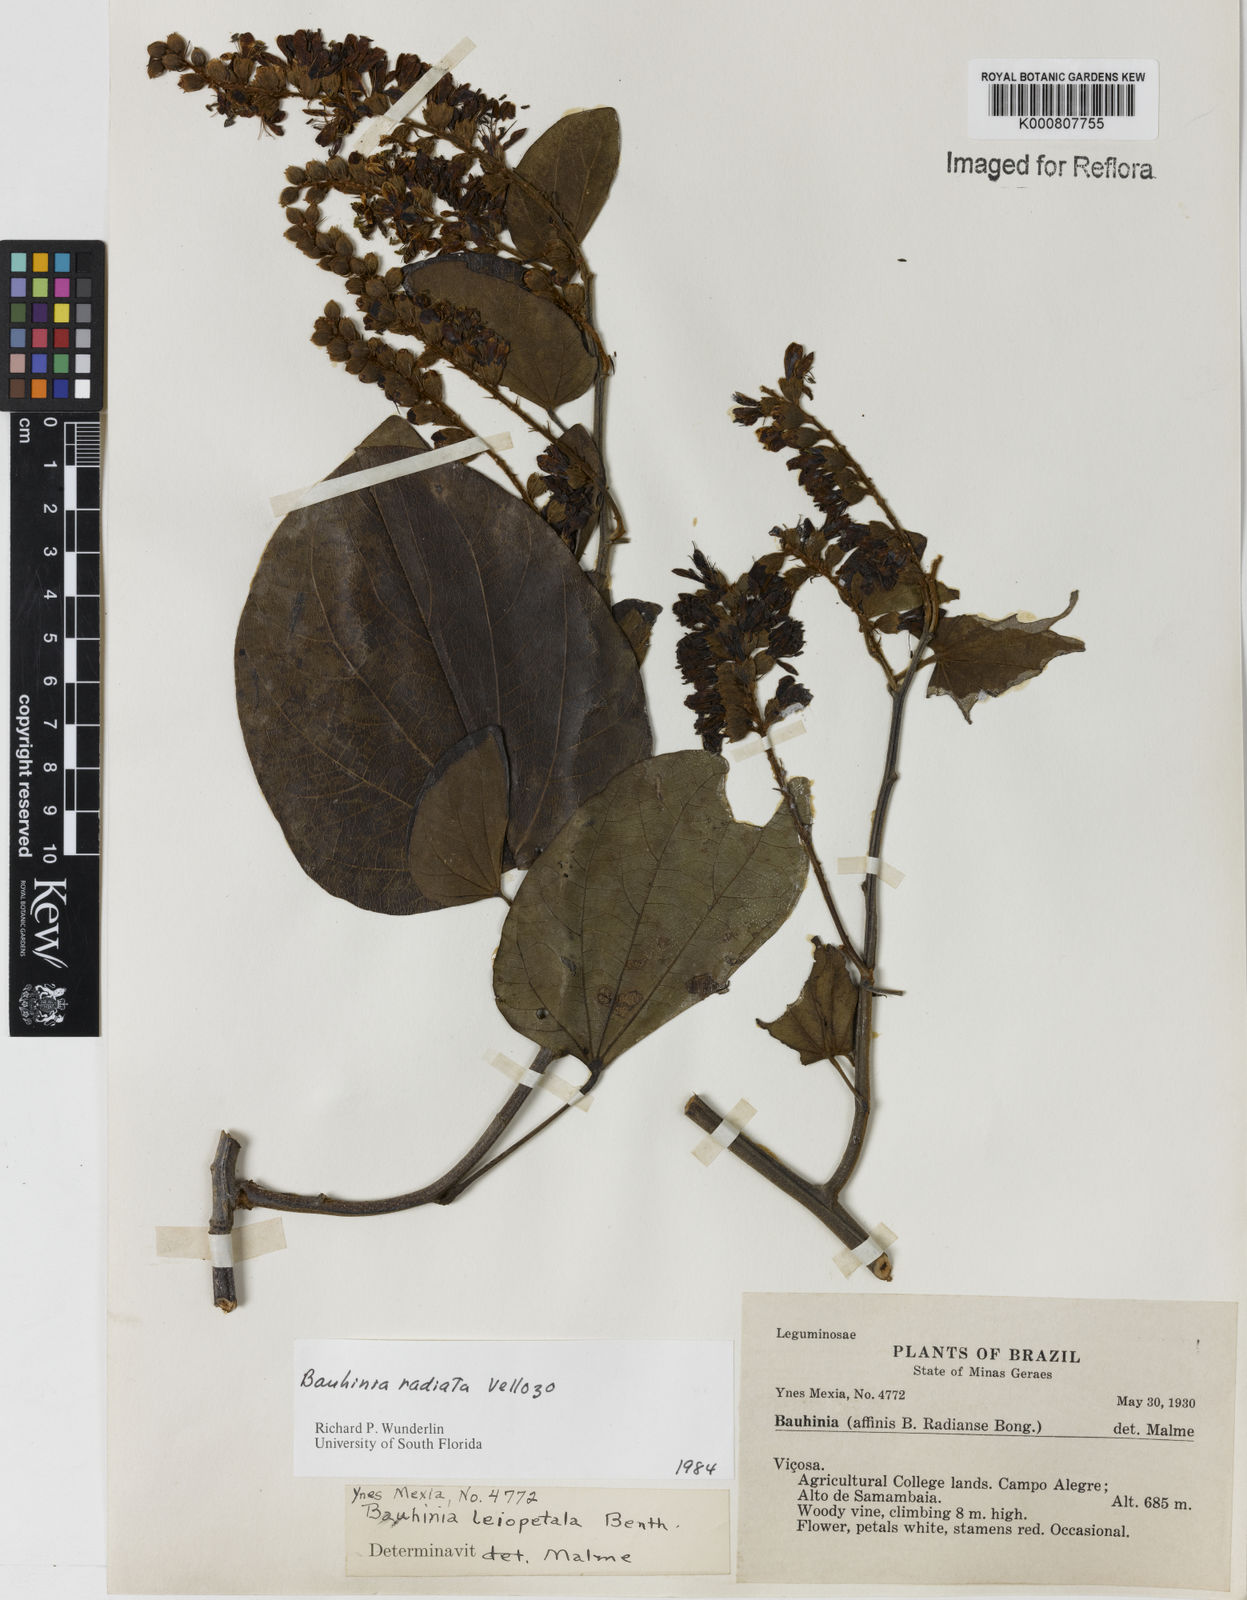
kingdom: Plantae
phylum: Tracheophyta
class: Magnoliopsida
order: Fabales
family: Fabaceae
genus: Schnella
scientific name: Schnella macrostachya
